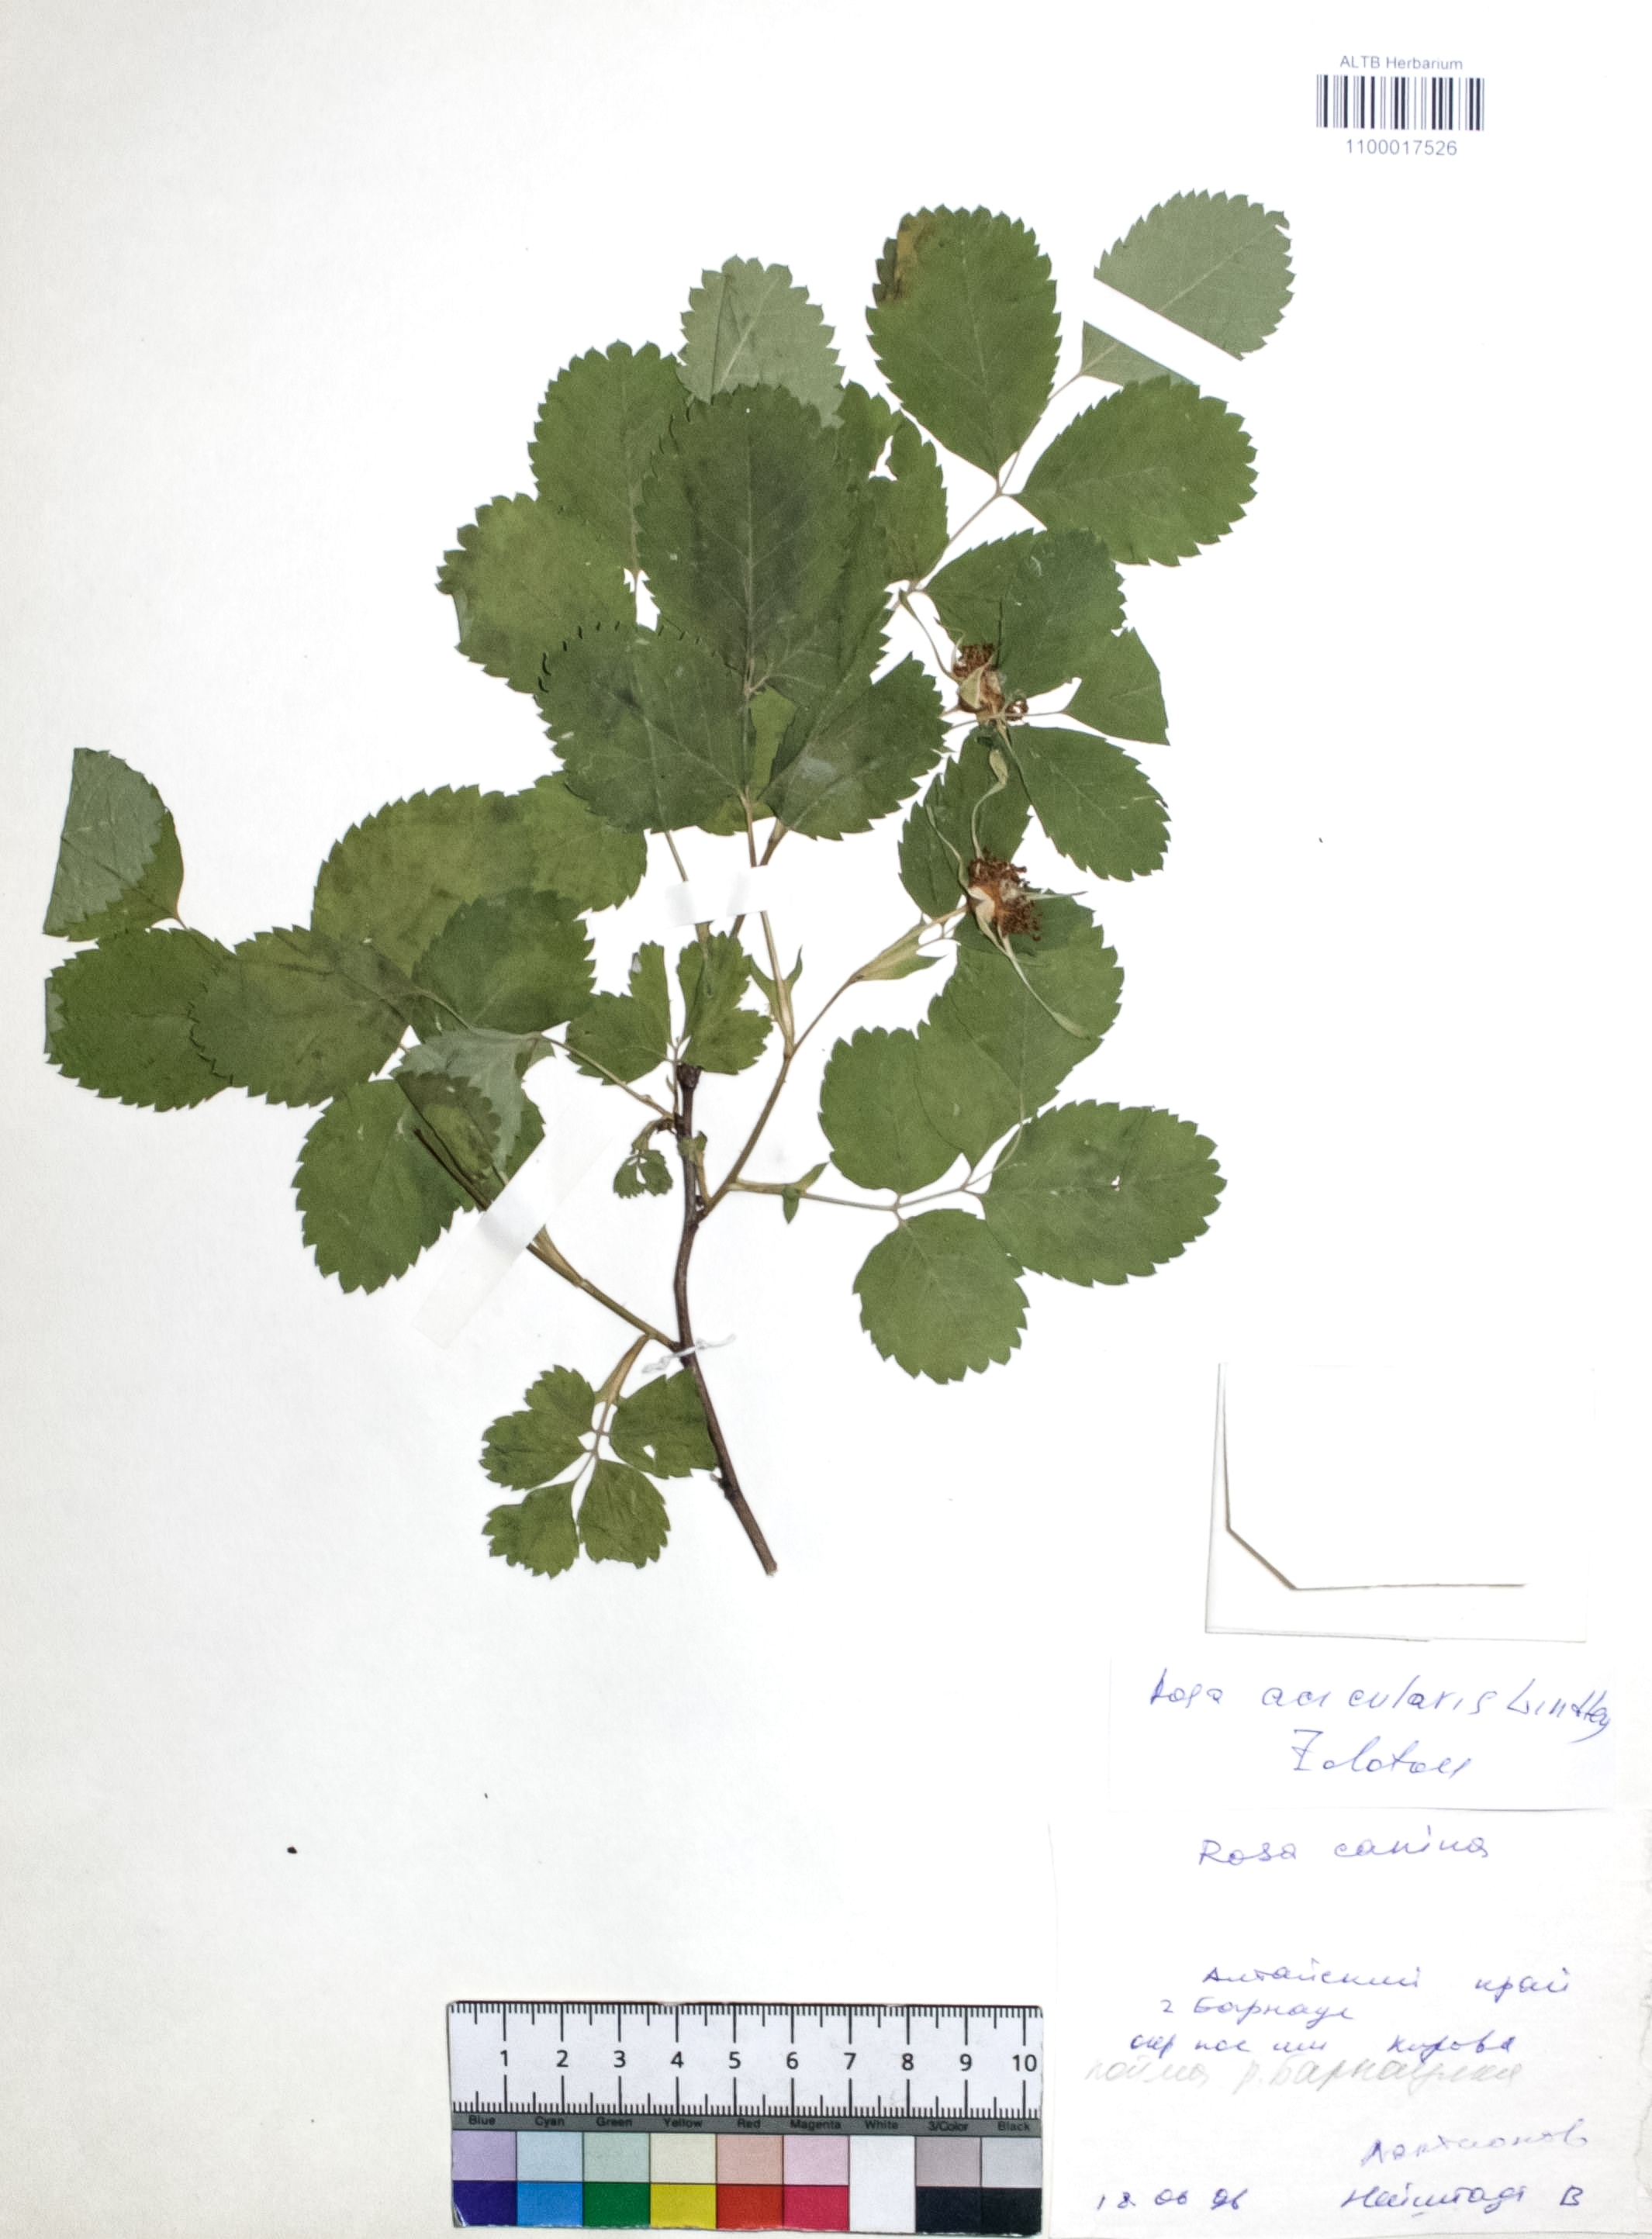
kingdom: Plantae
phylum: Tracheophyta
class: Magnoliopsida
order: Rosales
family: Rosaceae
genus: Rosa
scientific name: Rosa acicularis
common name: Prickly rose
